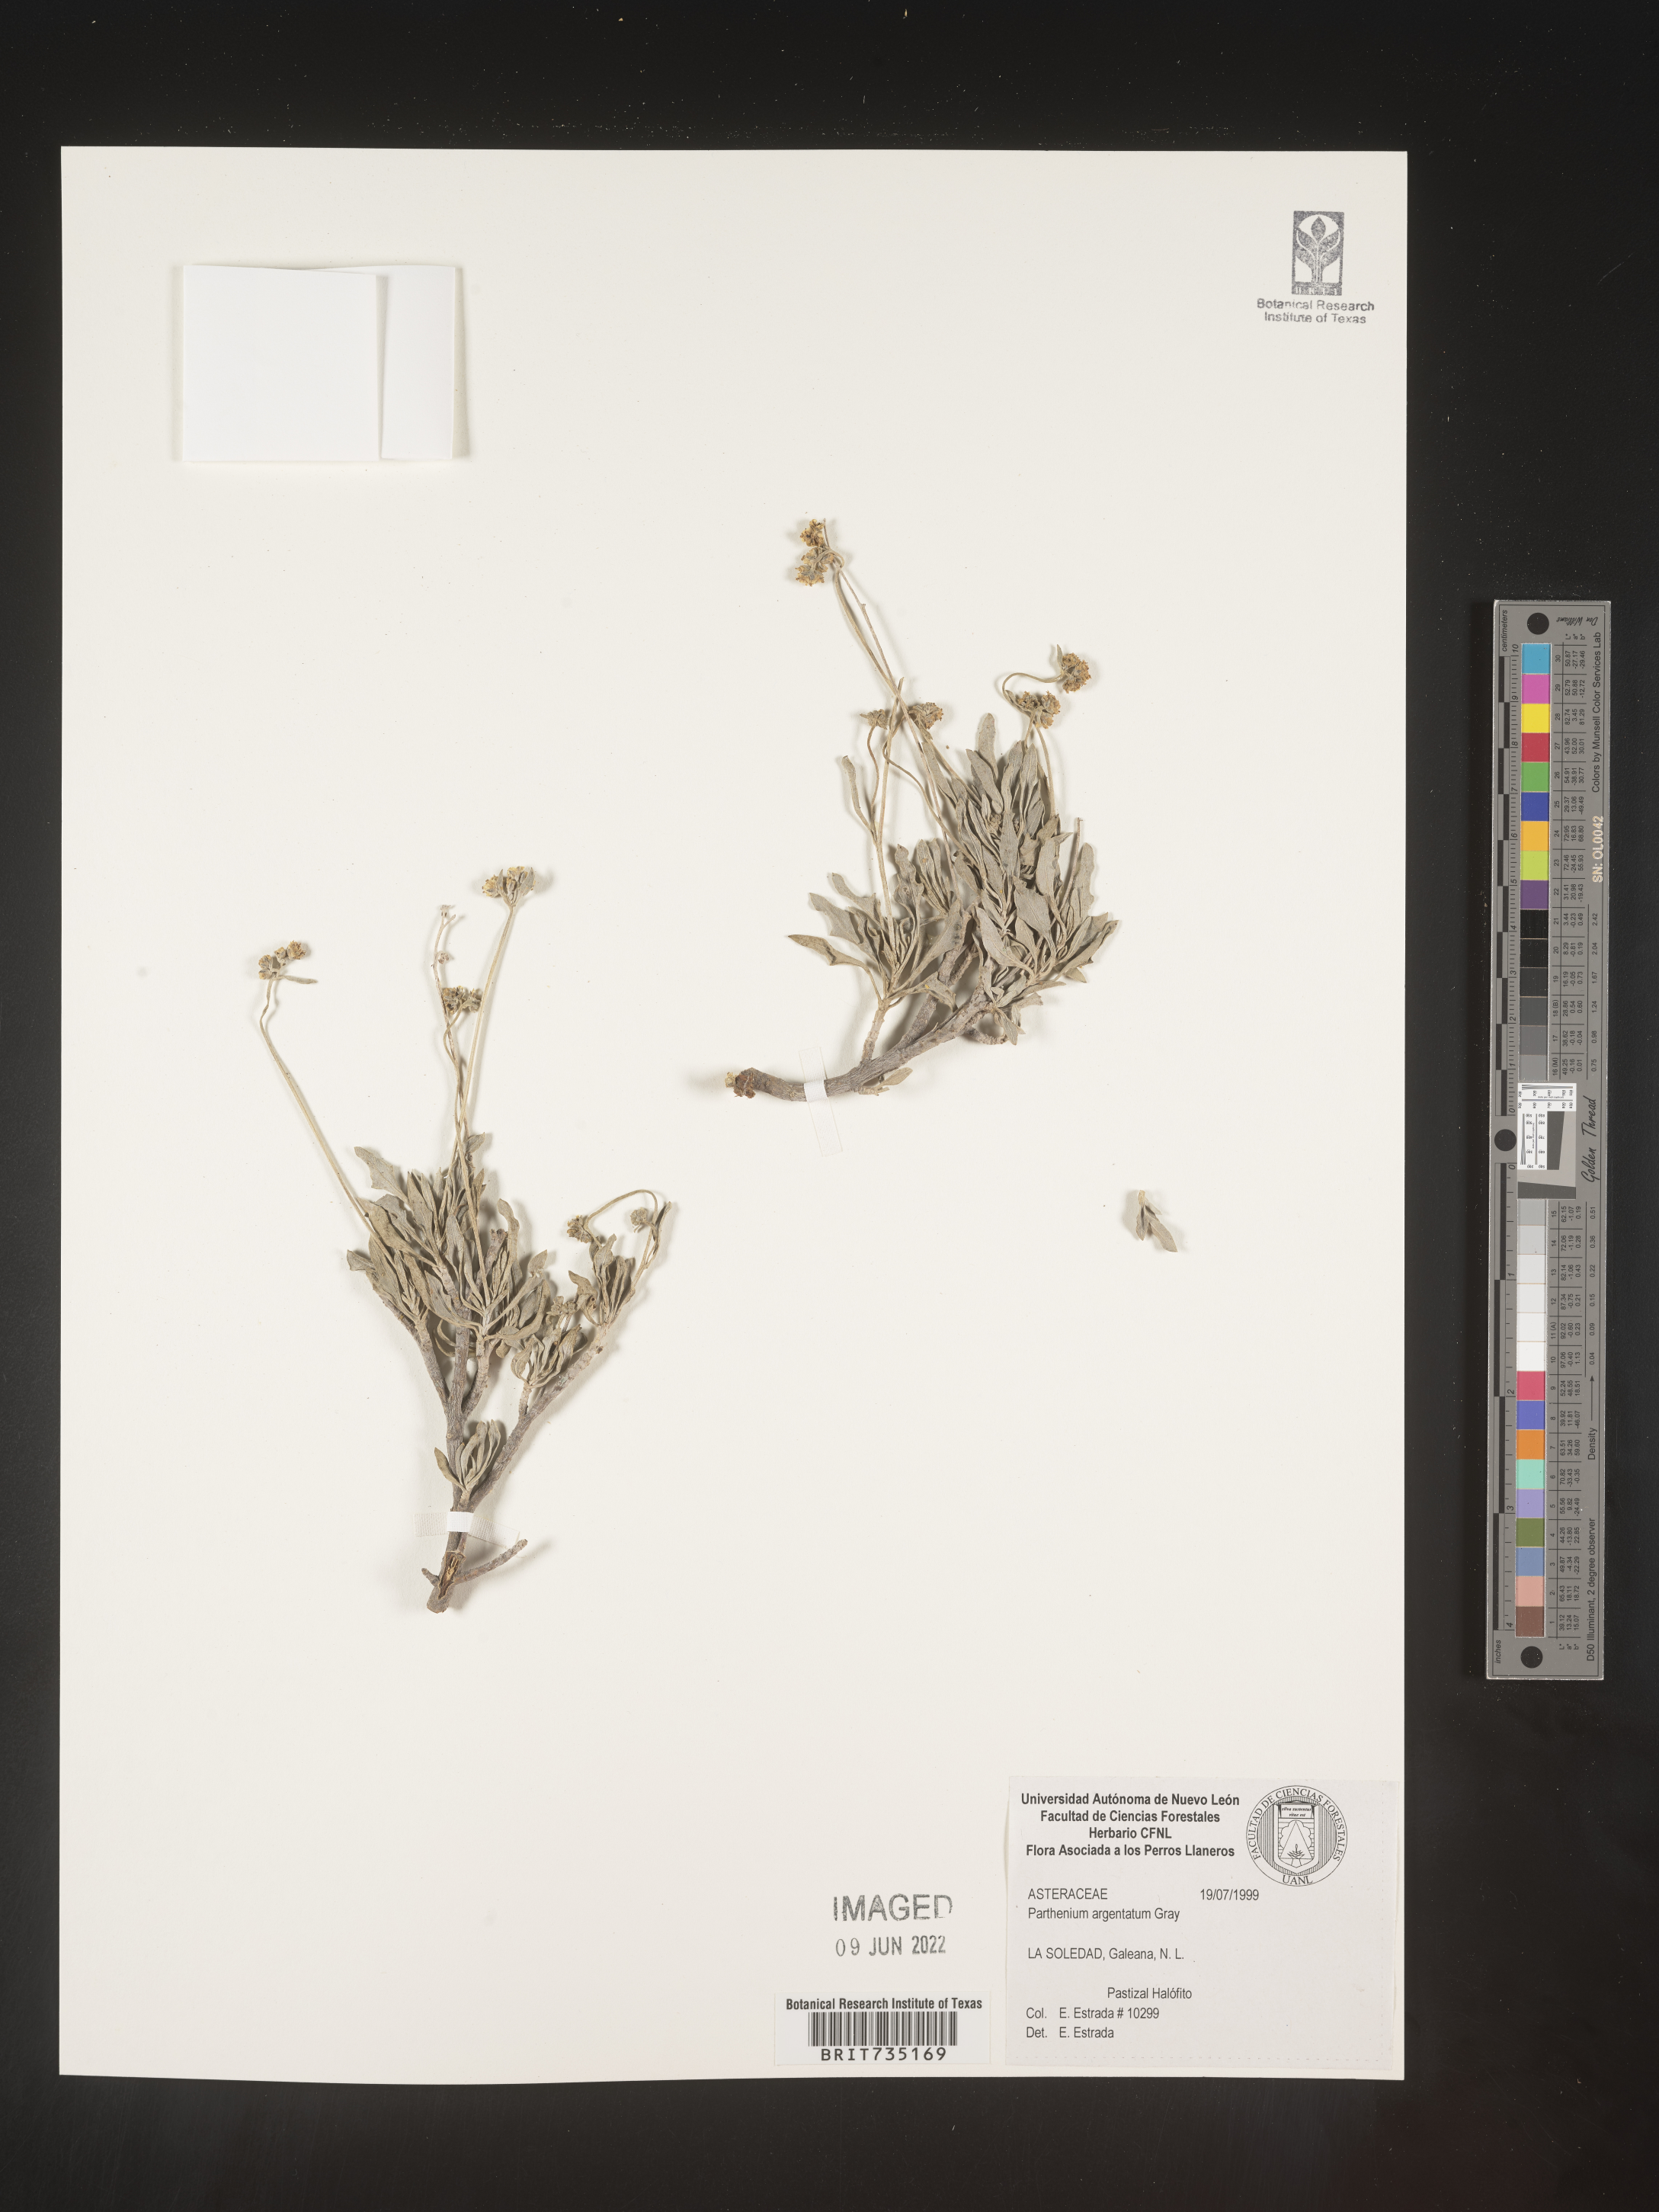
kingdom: Plantae
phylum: Tracheophyta
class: Magnoliopsida
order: Asterales
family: Asteraceae
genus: Parthenium
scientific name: Parthenium
